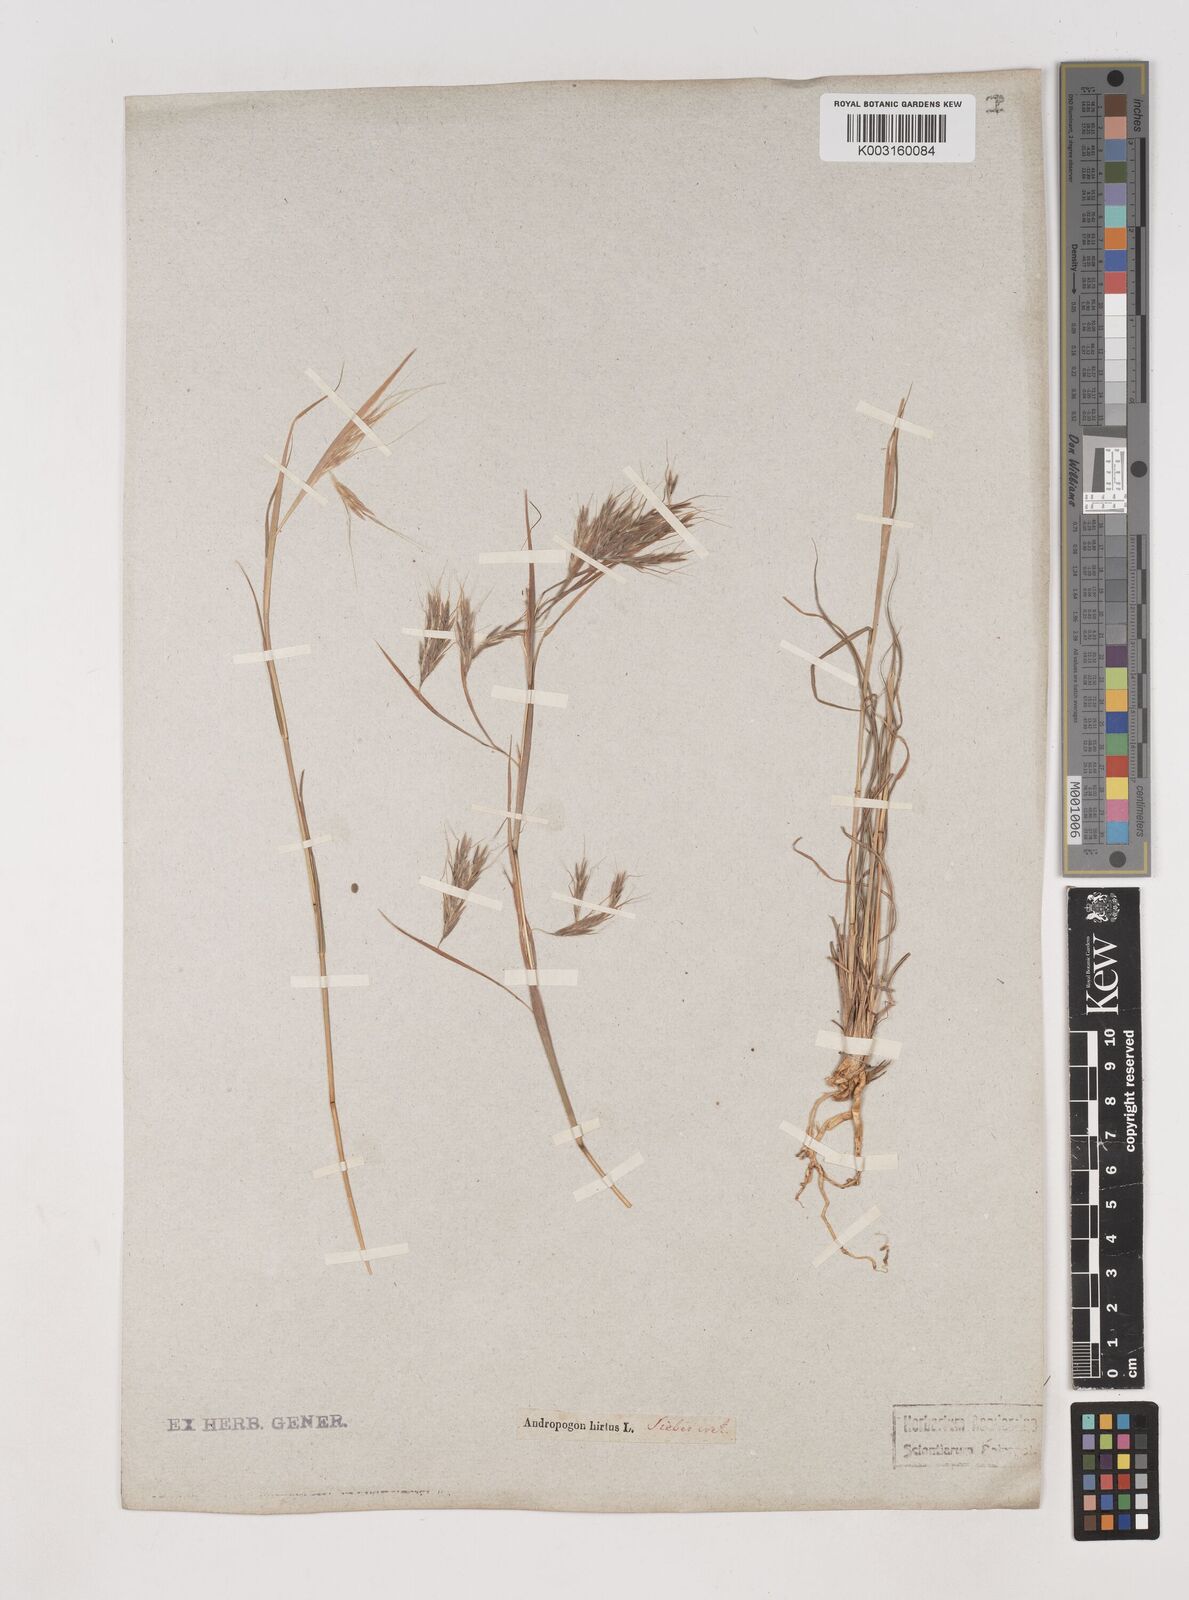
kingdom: Plantae
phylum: Tracheophyta
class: Liliopsida
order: Poales
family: Poaceae
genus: Hyparrhenia
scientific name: Hyparrhenia hirta
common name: Thatching grass
